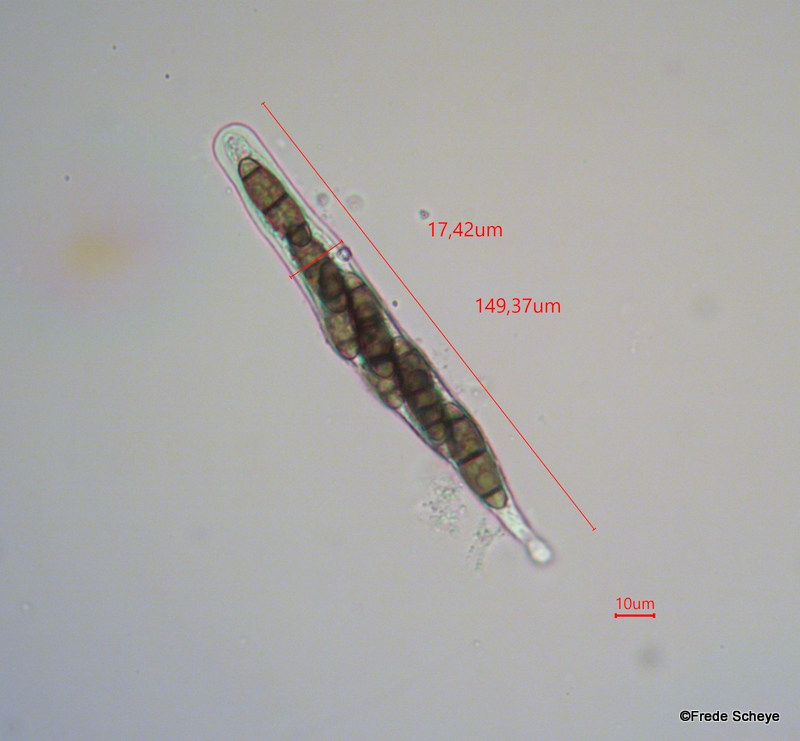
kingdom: Fungi
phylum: Ascomycota
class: Dothideomycetes
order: Hysteriales
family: Hysteriaceae
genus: Hysterium
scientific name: Hysterium pulicare
